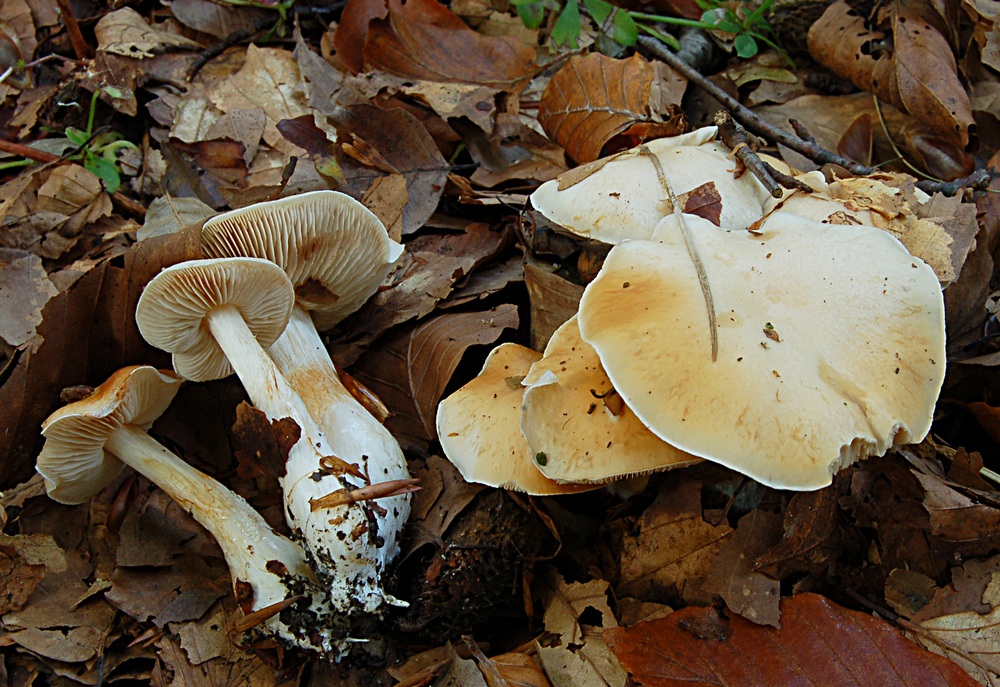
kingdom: Fungi
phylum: Basidiomycota
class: Agaricomycetes
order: Agaricales
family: Cortinariaceae
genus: Thaxterogaster
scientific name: Thaxterogaster barbatus
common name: elfenbens-slørhat
